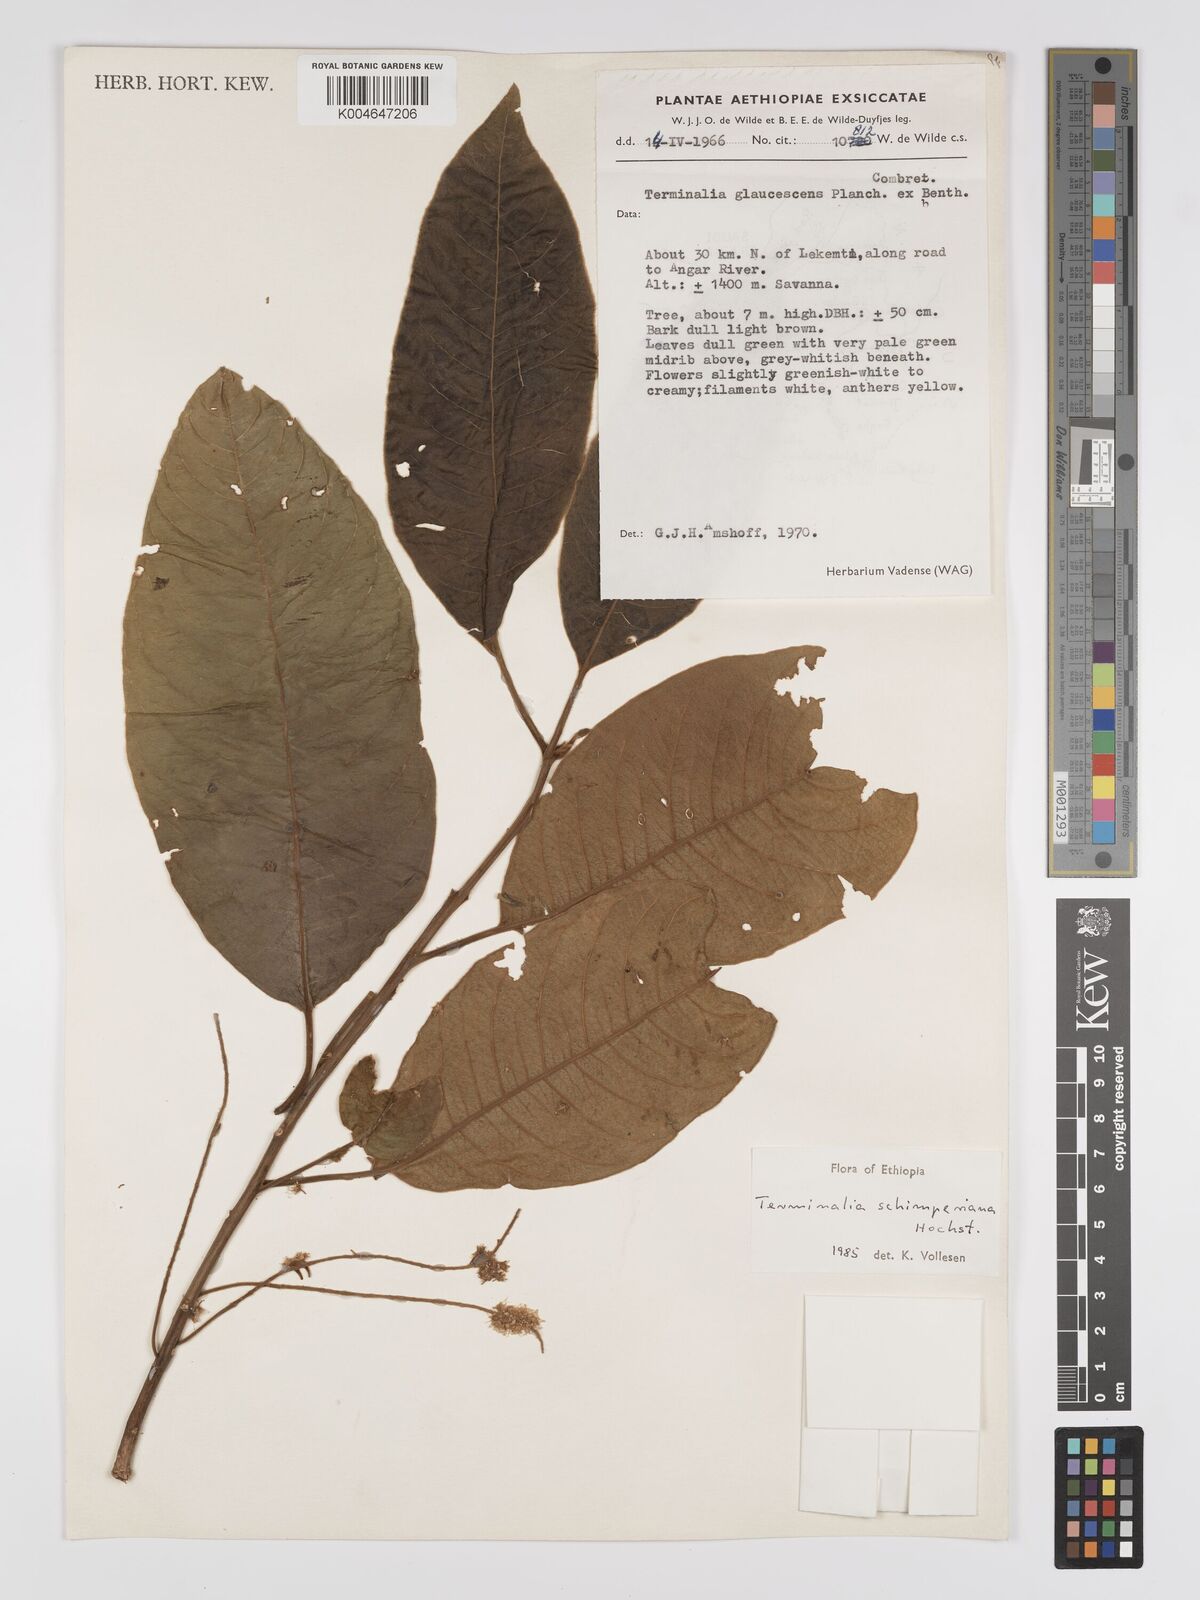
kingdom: Plantae
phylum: Tracheophyta
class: Magnoliopsida
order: Myrtales
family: Combretaceae
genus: Terminalia
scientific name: Terminalia schimperiana
